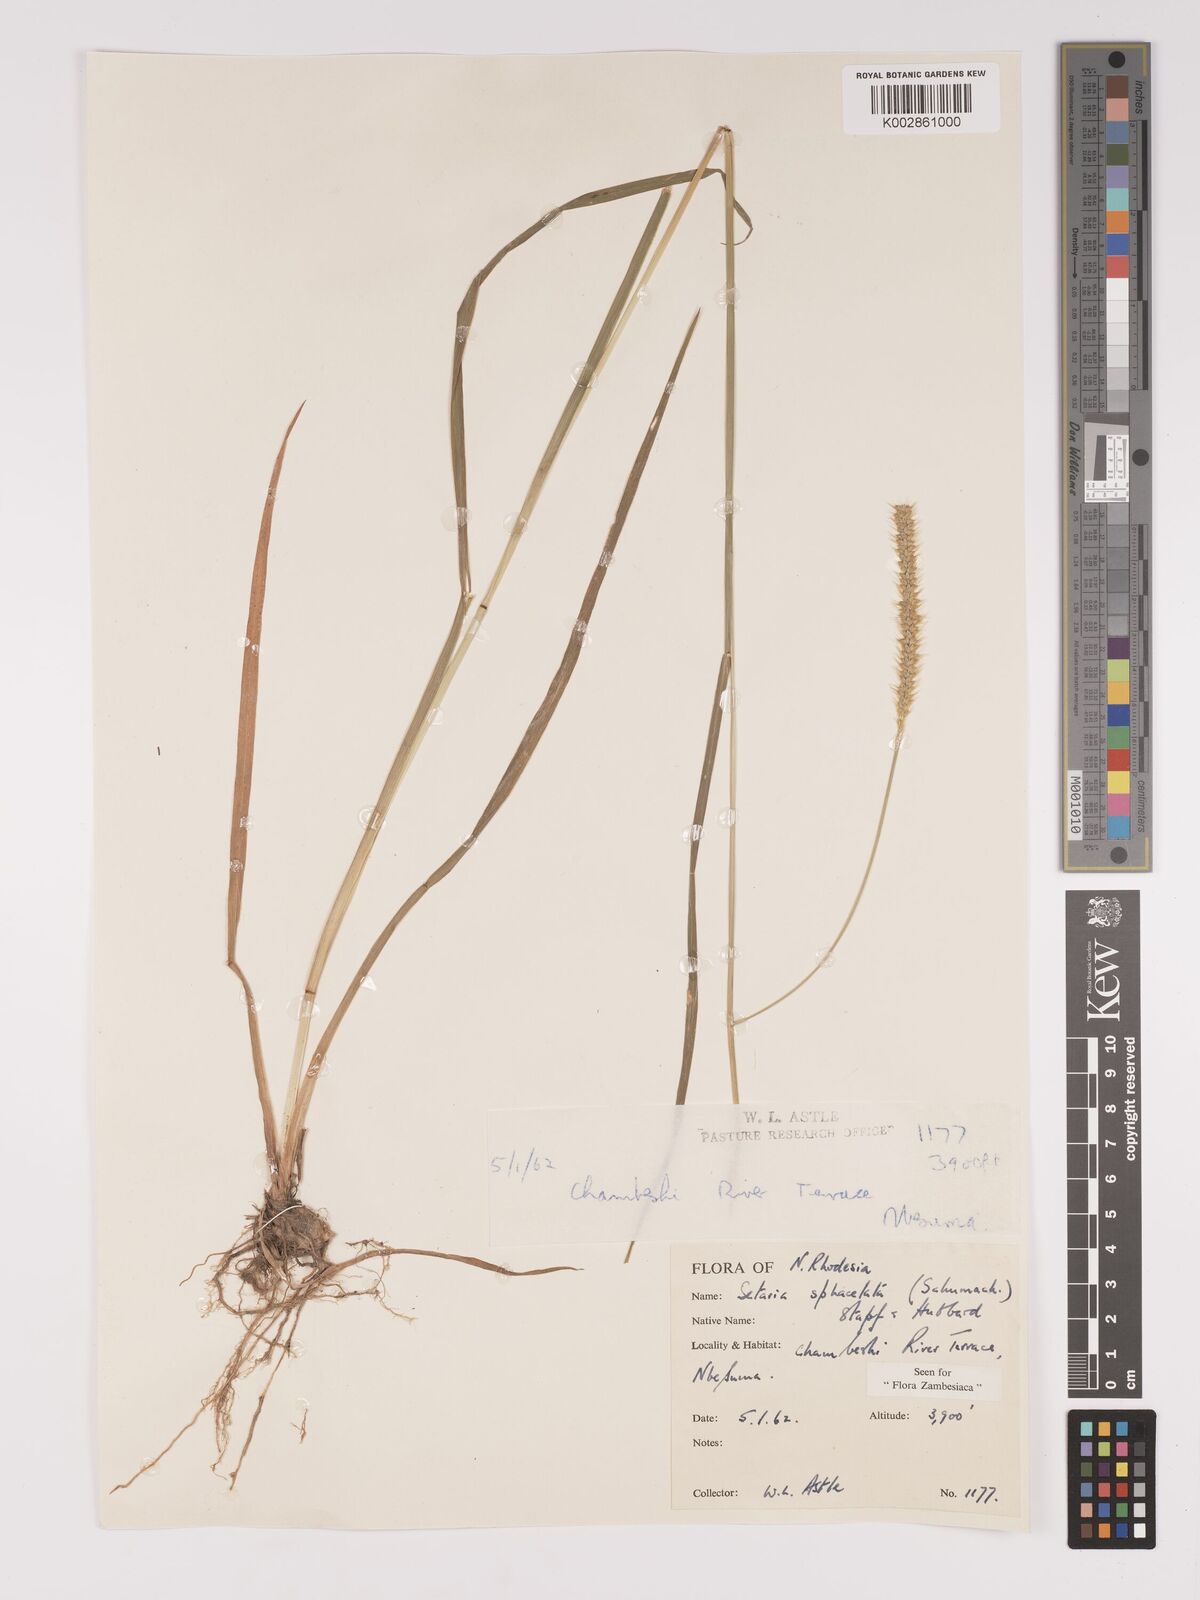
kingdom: Plantae
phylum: Tracheophyta
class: Liliopsida
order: Poales
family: Poaceae
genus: Setaria
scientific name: Setaria sphacelata
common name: African bristlegrass
